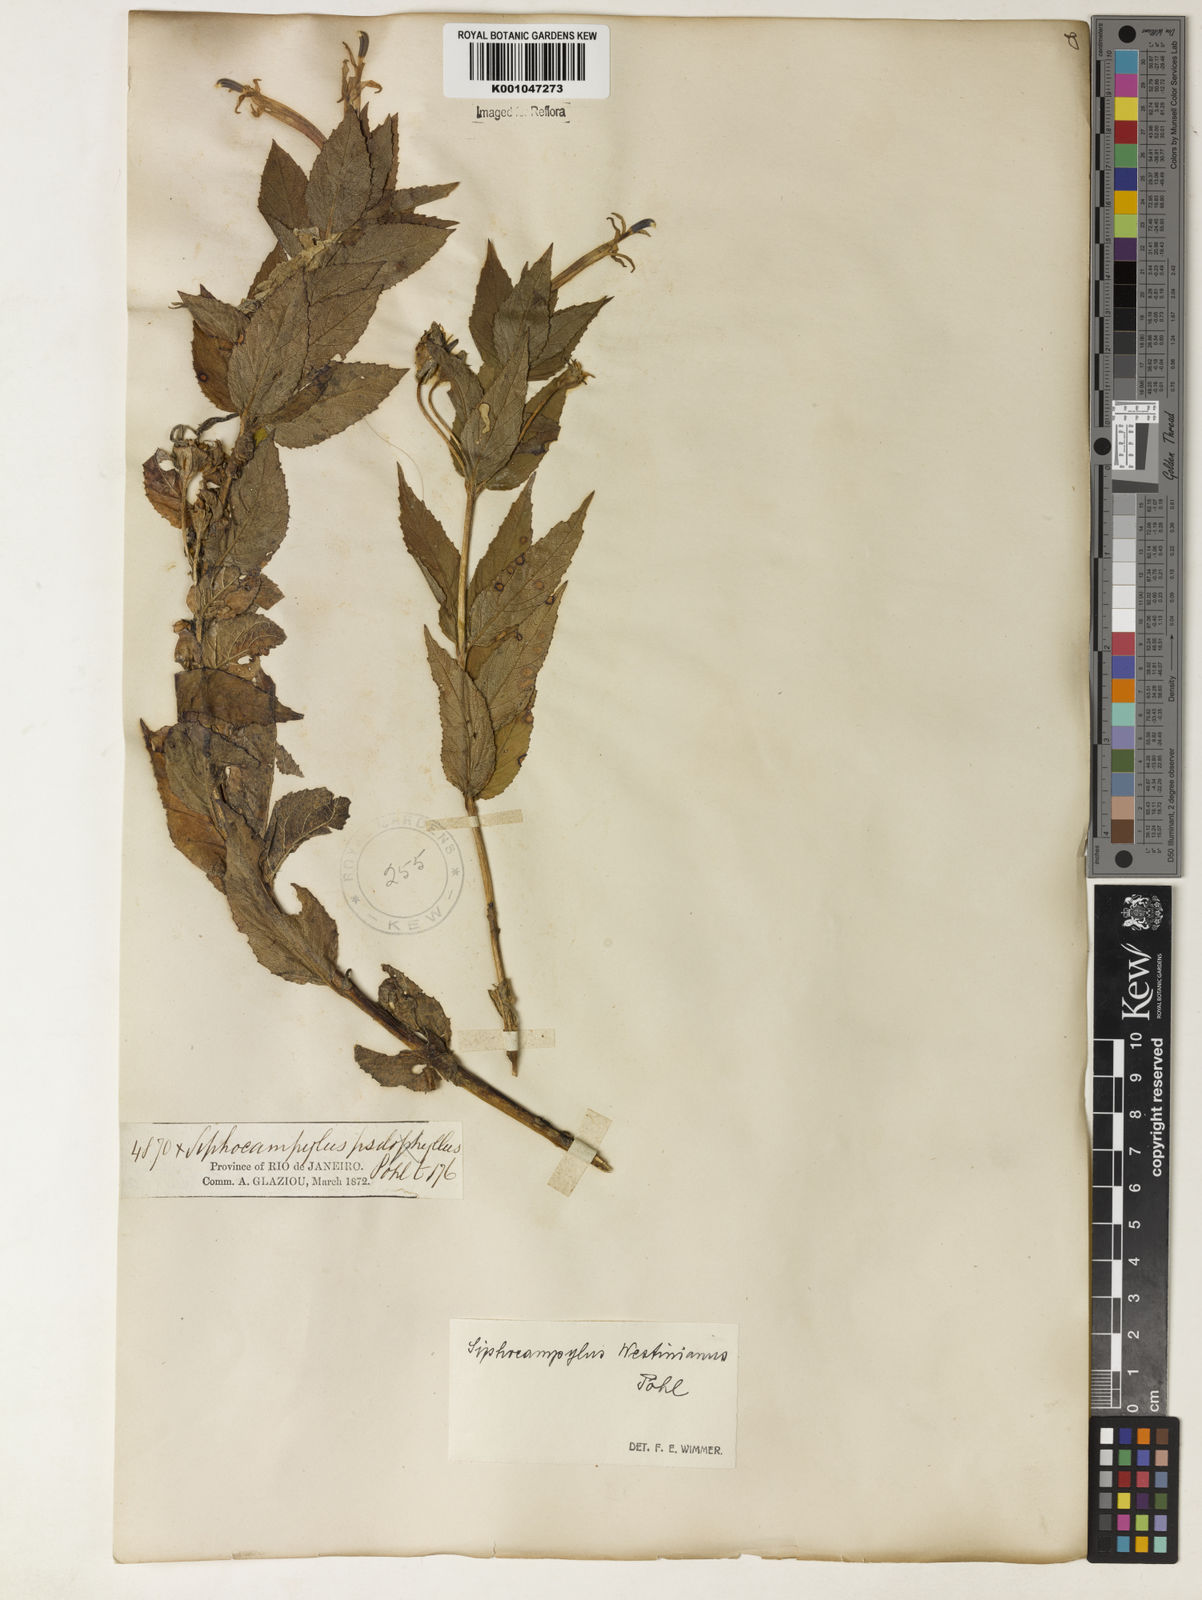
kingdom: Plantae
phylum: Tracheophyta
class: Magnoliopsida
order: Asterales
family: Campanulaceae
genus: Siphocampylus
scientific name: Siphocampylus westinianus
